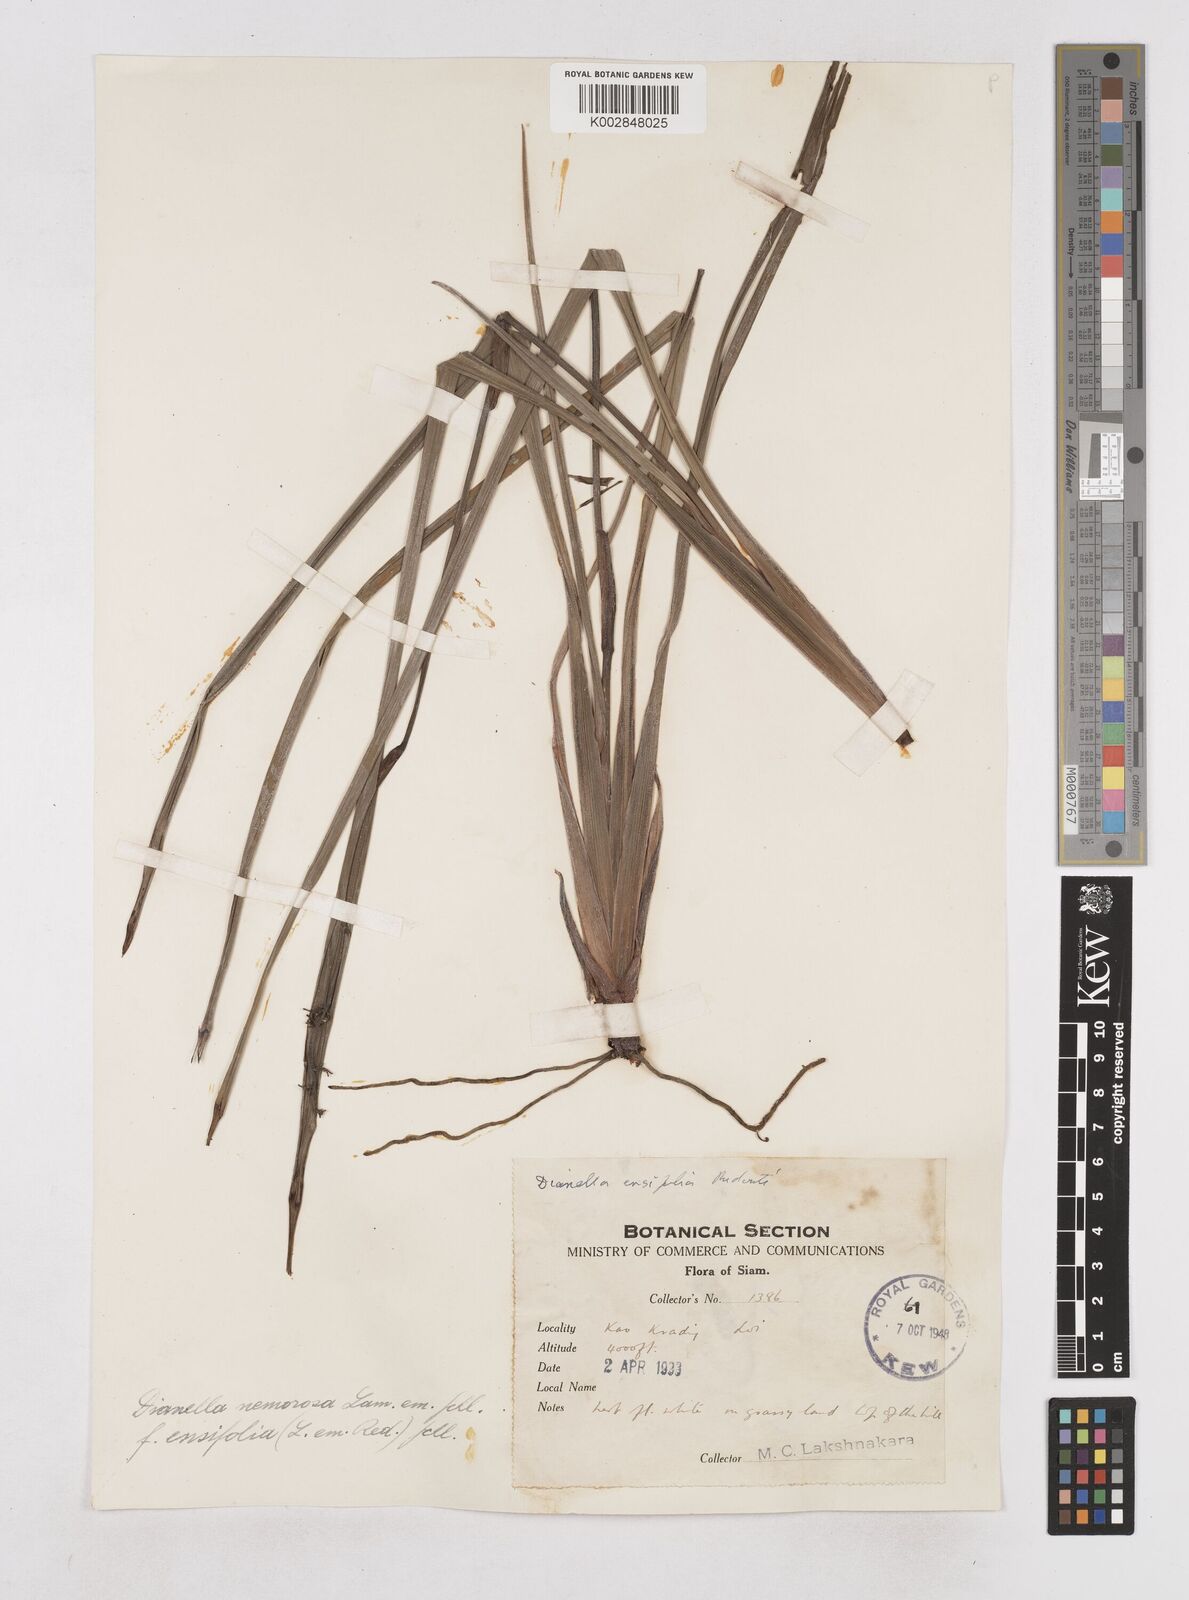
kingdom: Plantae
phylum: Tracheophyta
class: Liliopsida
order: Asparagales
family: Asphodelaceae
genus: Dianella
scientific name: Dianella ensifolia
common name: New zealand lilyplant
